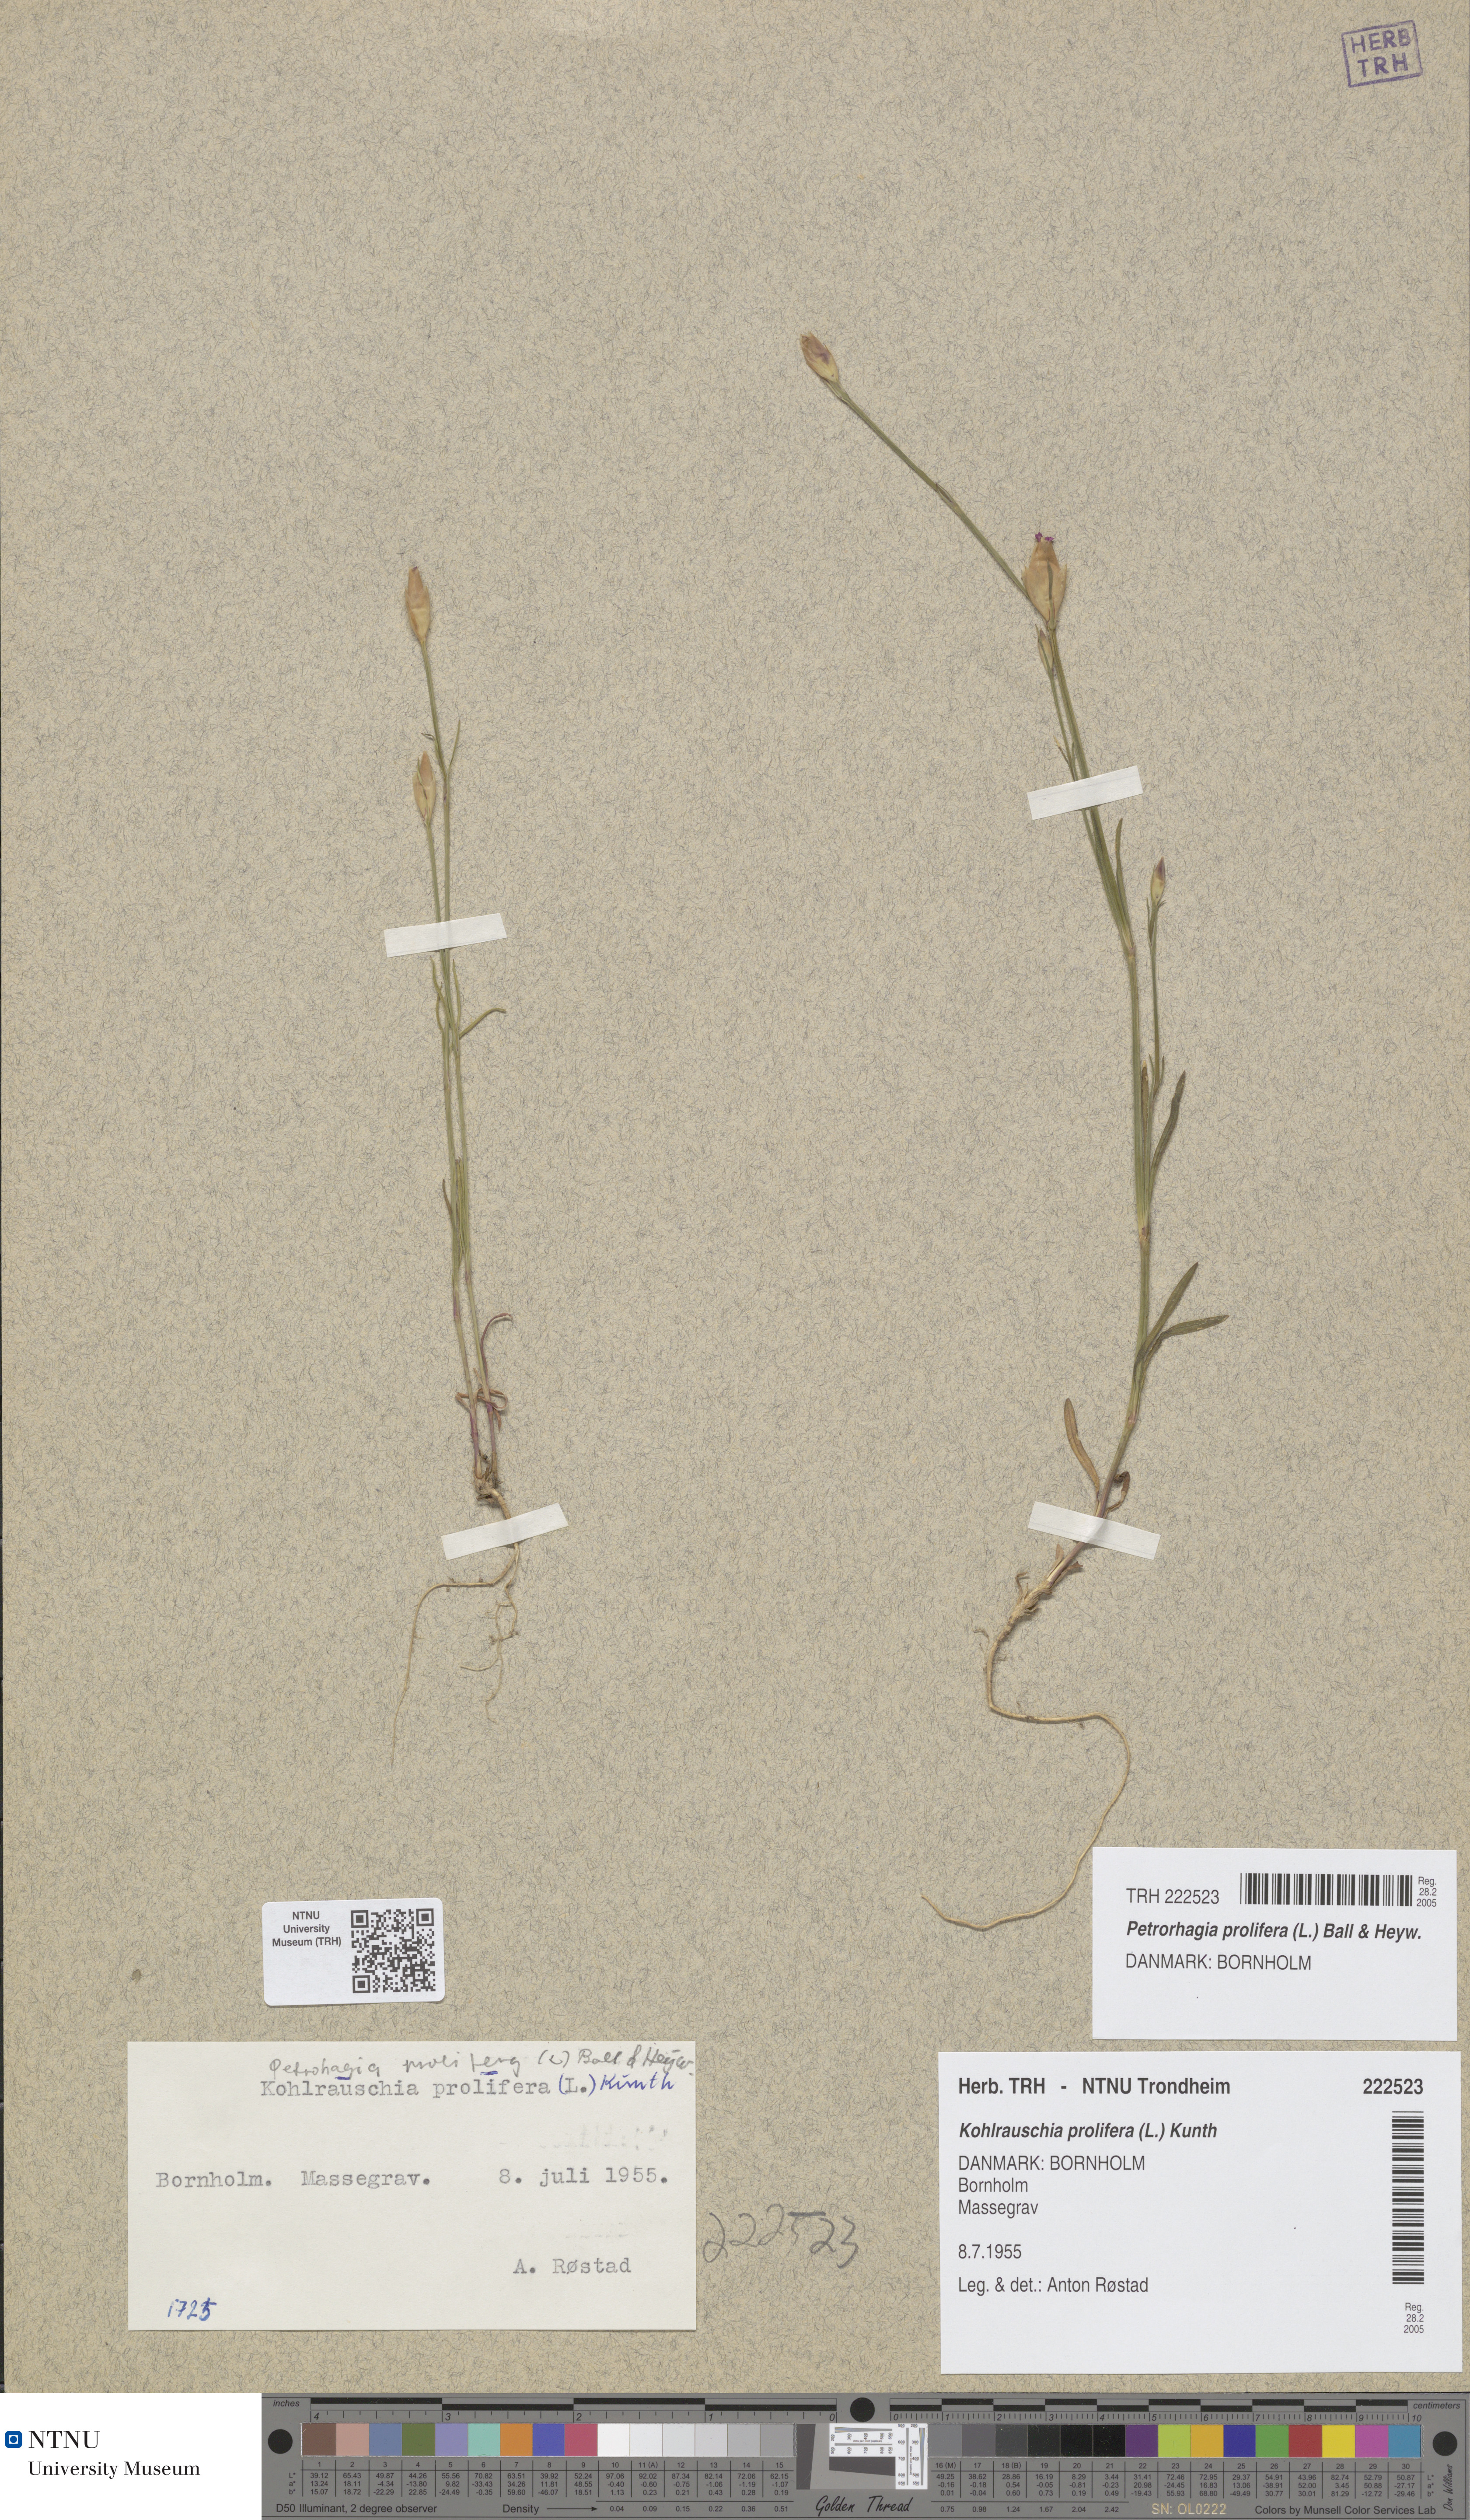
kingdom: Plantae
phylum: Tracheophyta
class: Magnoliopsida
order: Caryophyllales
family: Caryophyllaceae
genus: Petrorhagia
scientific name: Petrorhagia prolifera
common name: Proliferous pink
